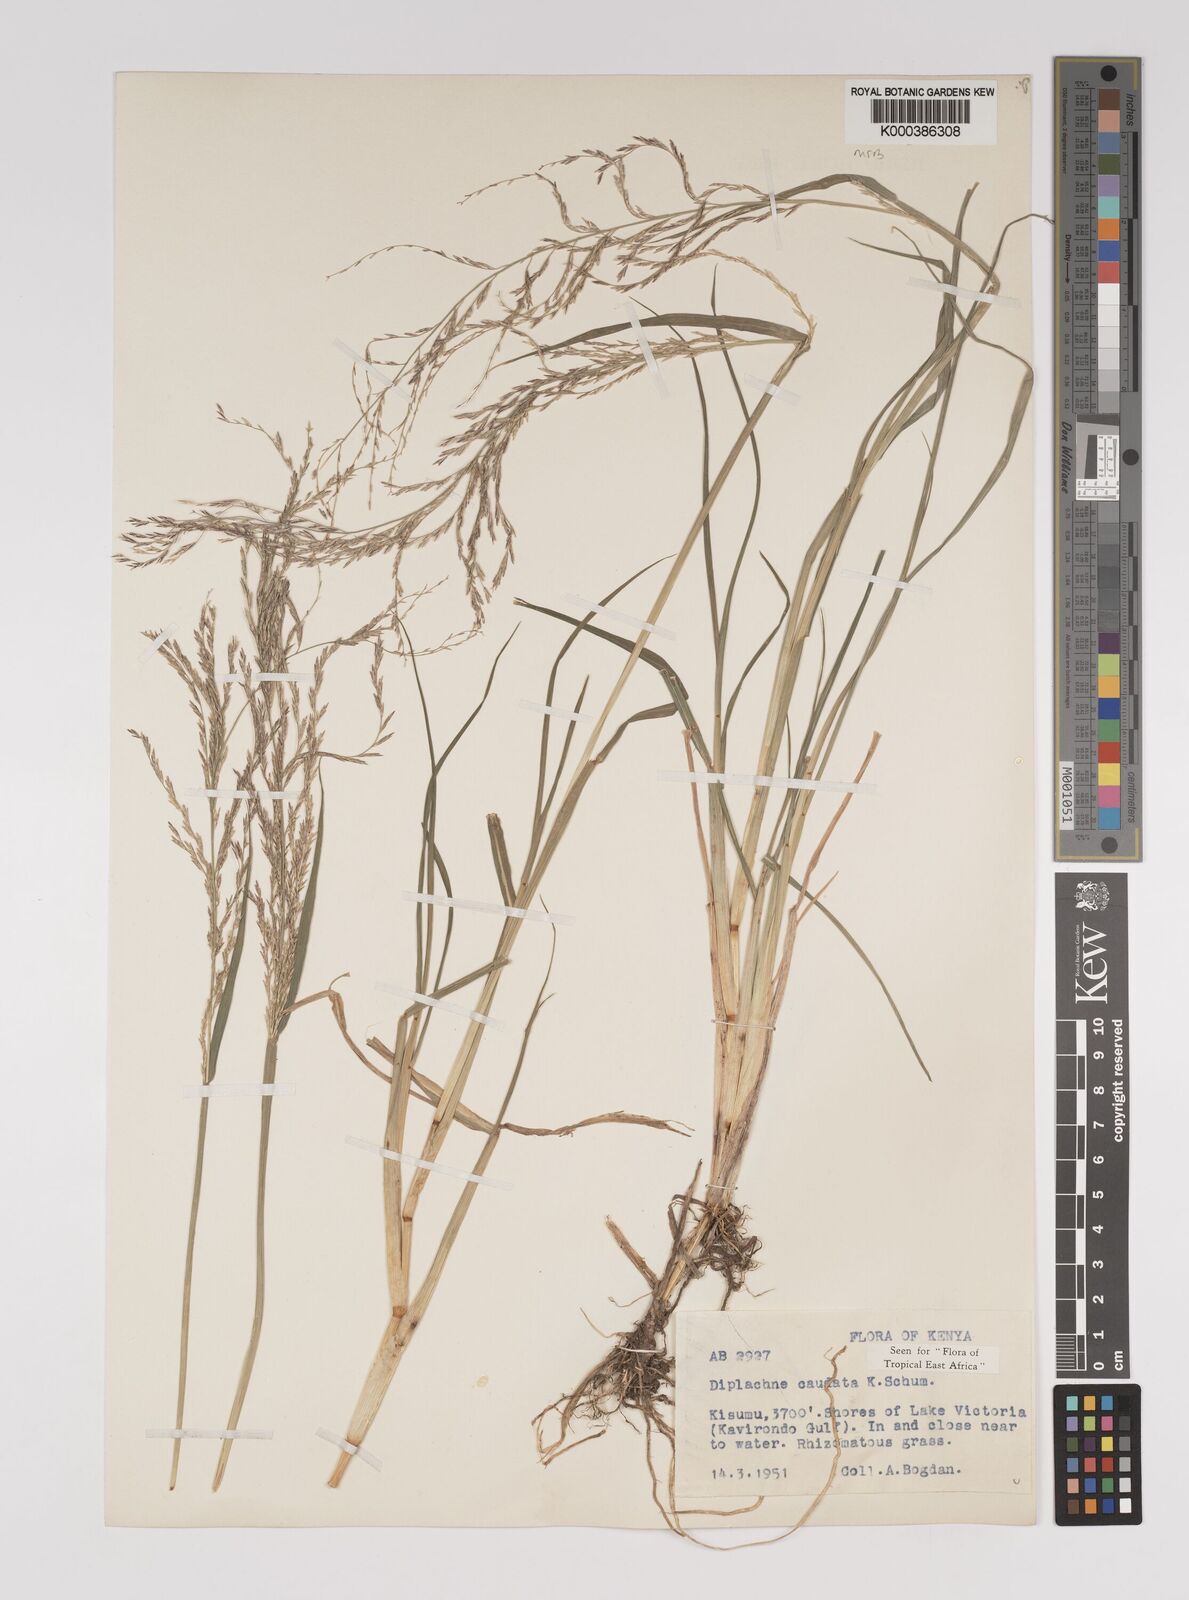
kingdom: Plantae
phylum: Tracheophyta
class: Liliopsida
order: Poales
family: Poaceae
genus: Leptochloa
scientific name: Leptochloa caudata
